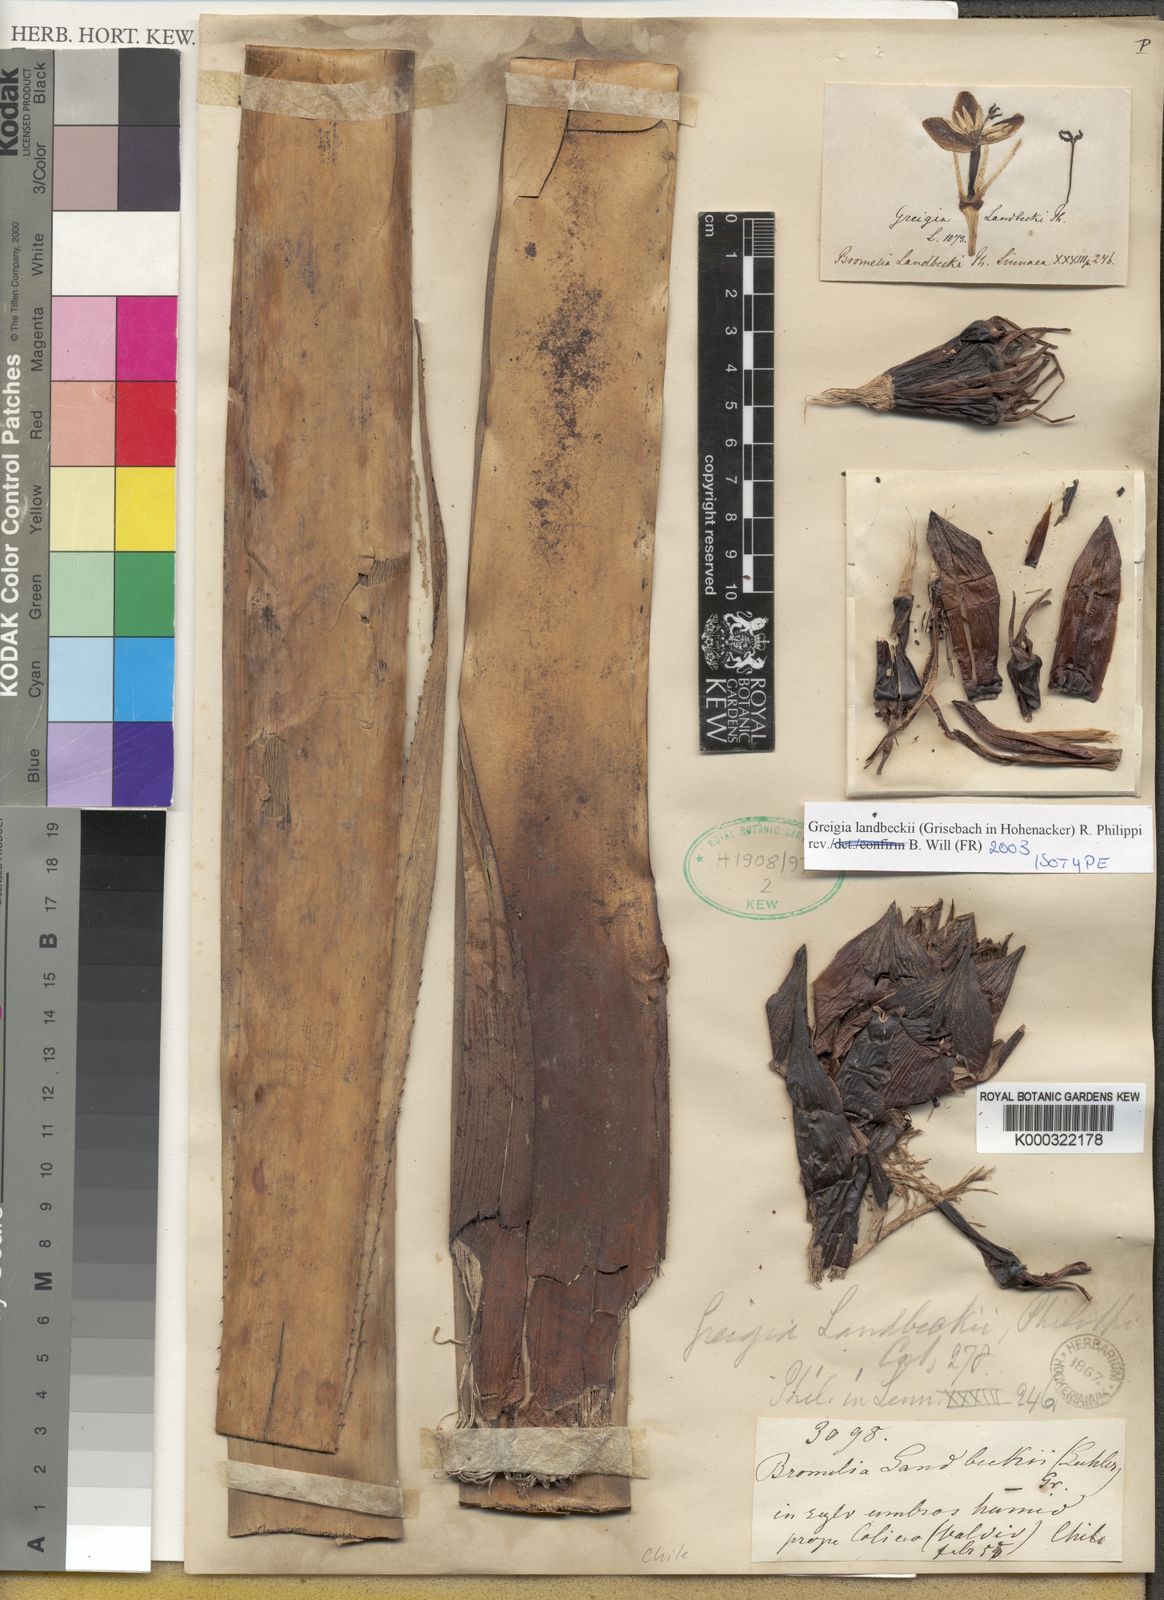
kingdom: Plantae
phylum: Tracheophyta
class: Liliopsida
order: Poales
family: Bromeliaceae
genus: Greigia
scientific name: Greigia landbeckii
